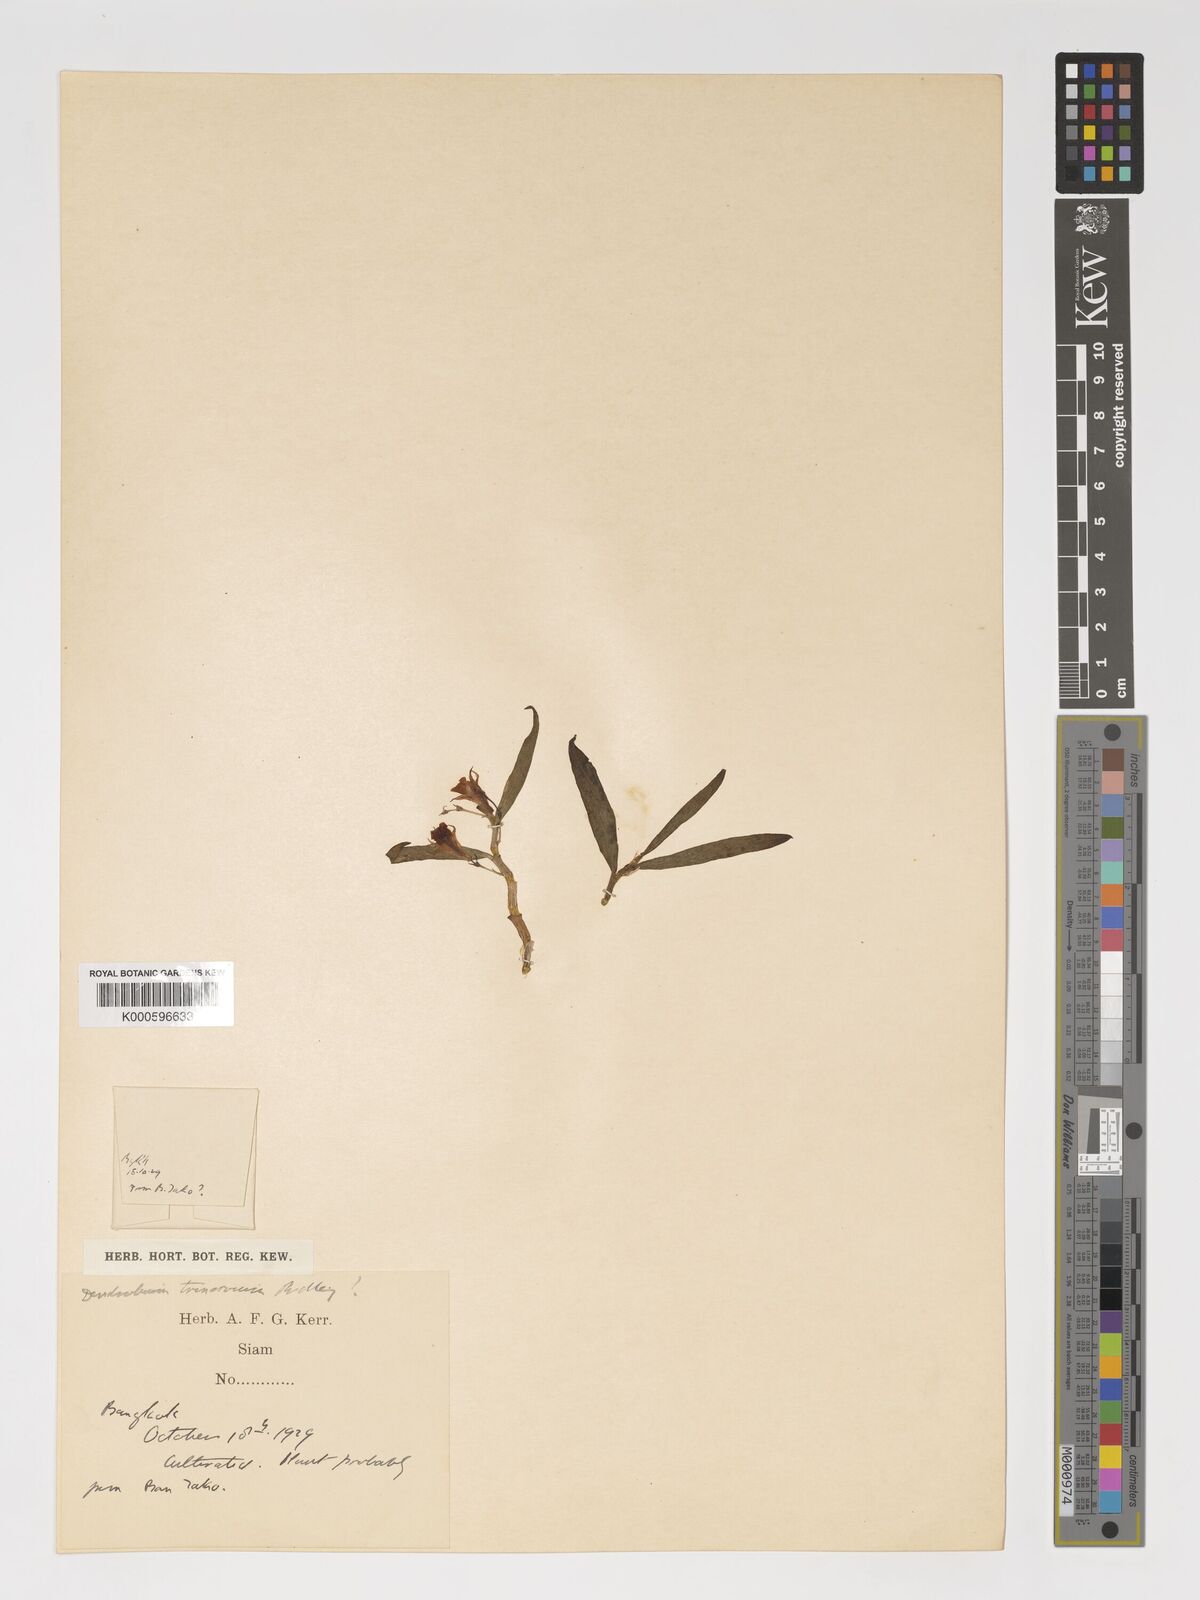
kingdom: Plantae
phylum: Tracheophyta
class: Liliopsida
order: Asparagales
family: Orchidaceae
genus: Dendrobium
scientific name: Dendrobium trinervium
